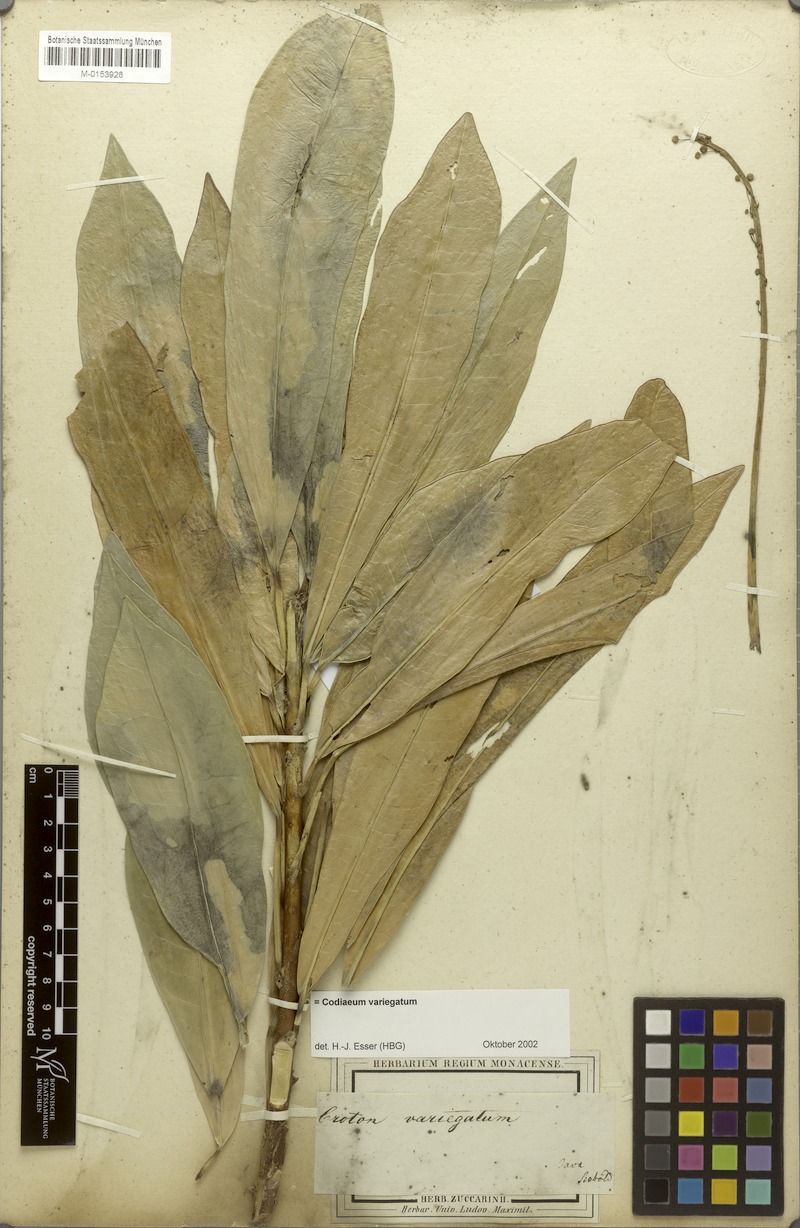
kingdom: Plantae
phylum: Tracheophyta
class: Magnoliopsida
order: Malpighiales
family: Euphorbiaceae
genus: Codiaeum
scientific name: Codiaeum variegatum
